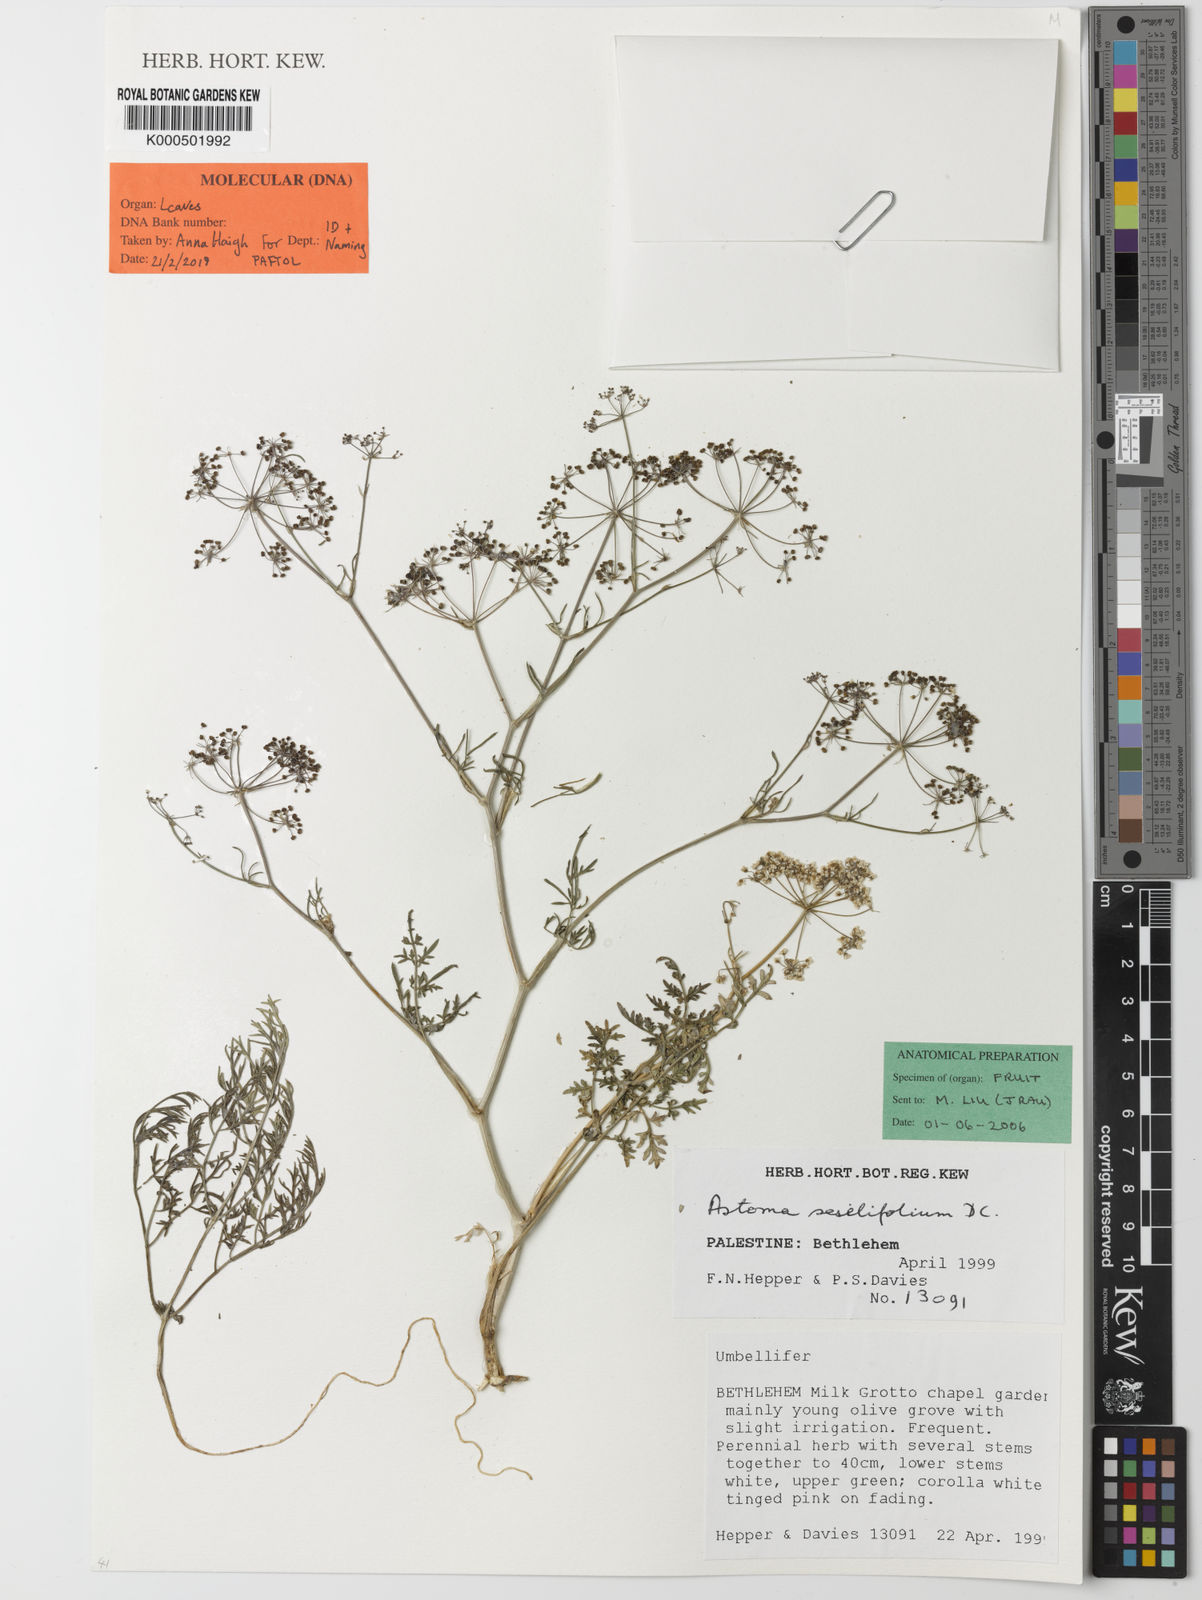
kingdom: Plantae
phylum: Tracheophyta
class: Magnoliopsida
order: Apiales
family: Apiaceae
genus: Astomaea
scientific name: Astomaea seselifolium
